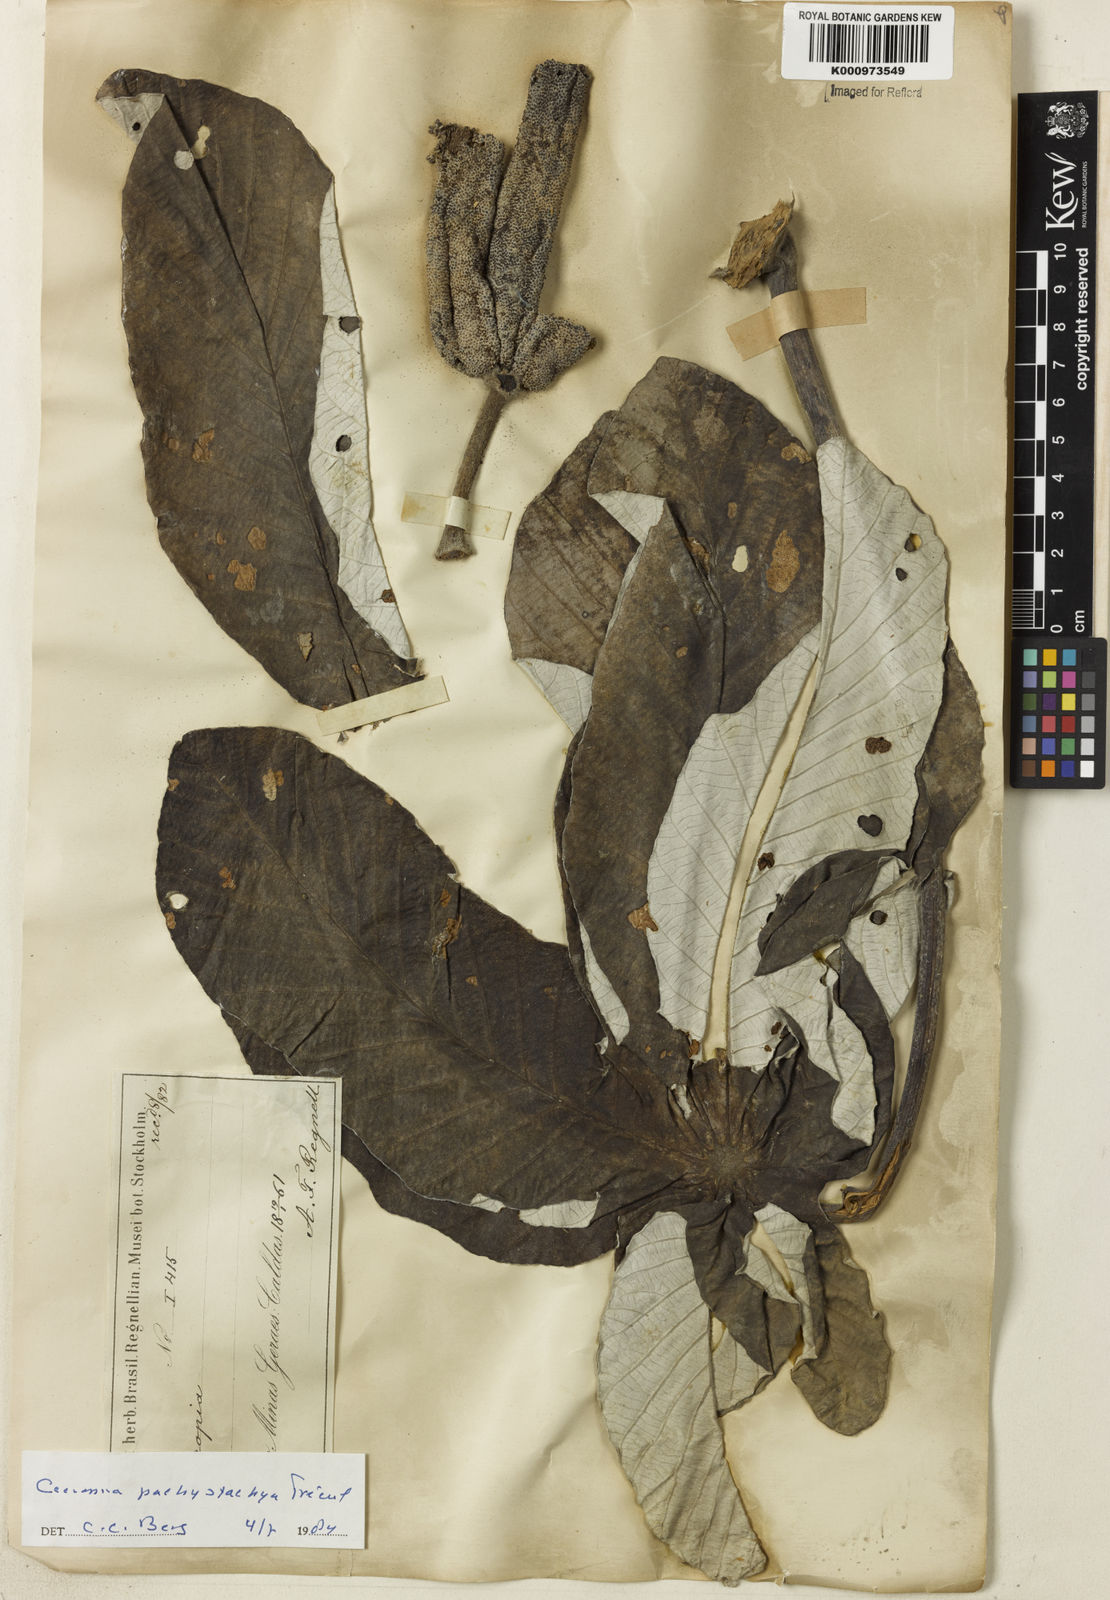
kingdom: Plantae
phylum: Tracheophyta
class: Magnoliopsida
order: Rosales
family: Urticaceae
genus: Cecropia
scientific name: Cecropia
